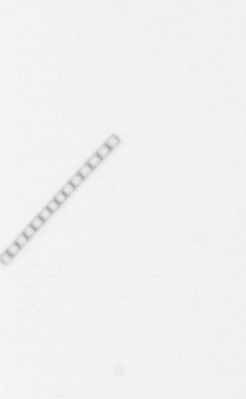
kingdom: Chromista
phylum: Ochrophyta
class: Bacillariophyceae
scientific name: Bacillariophyceae
